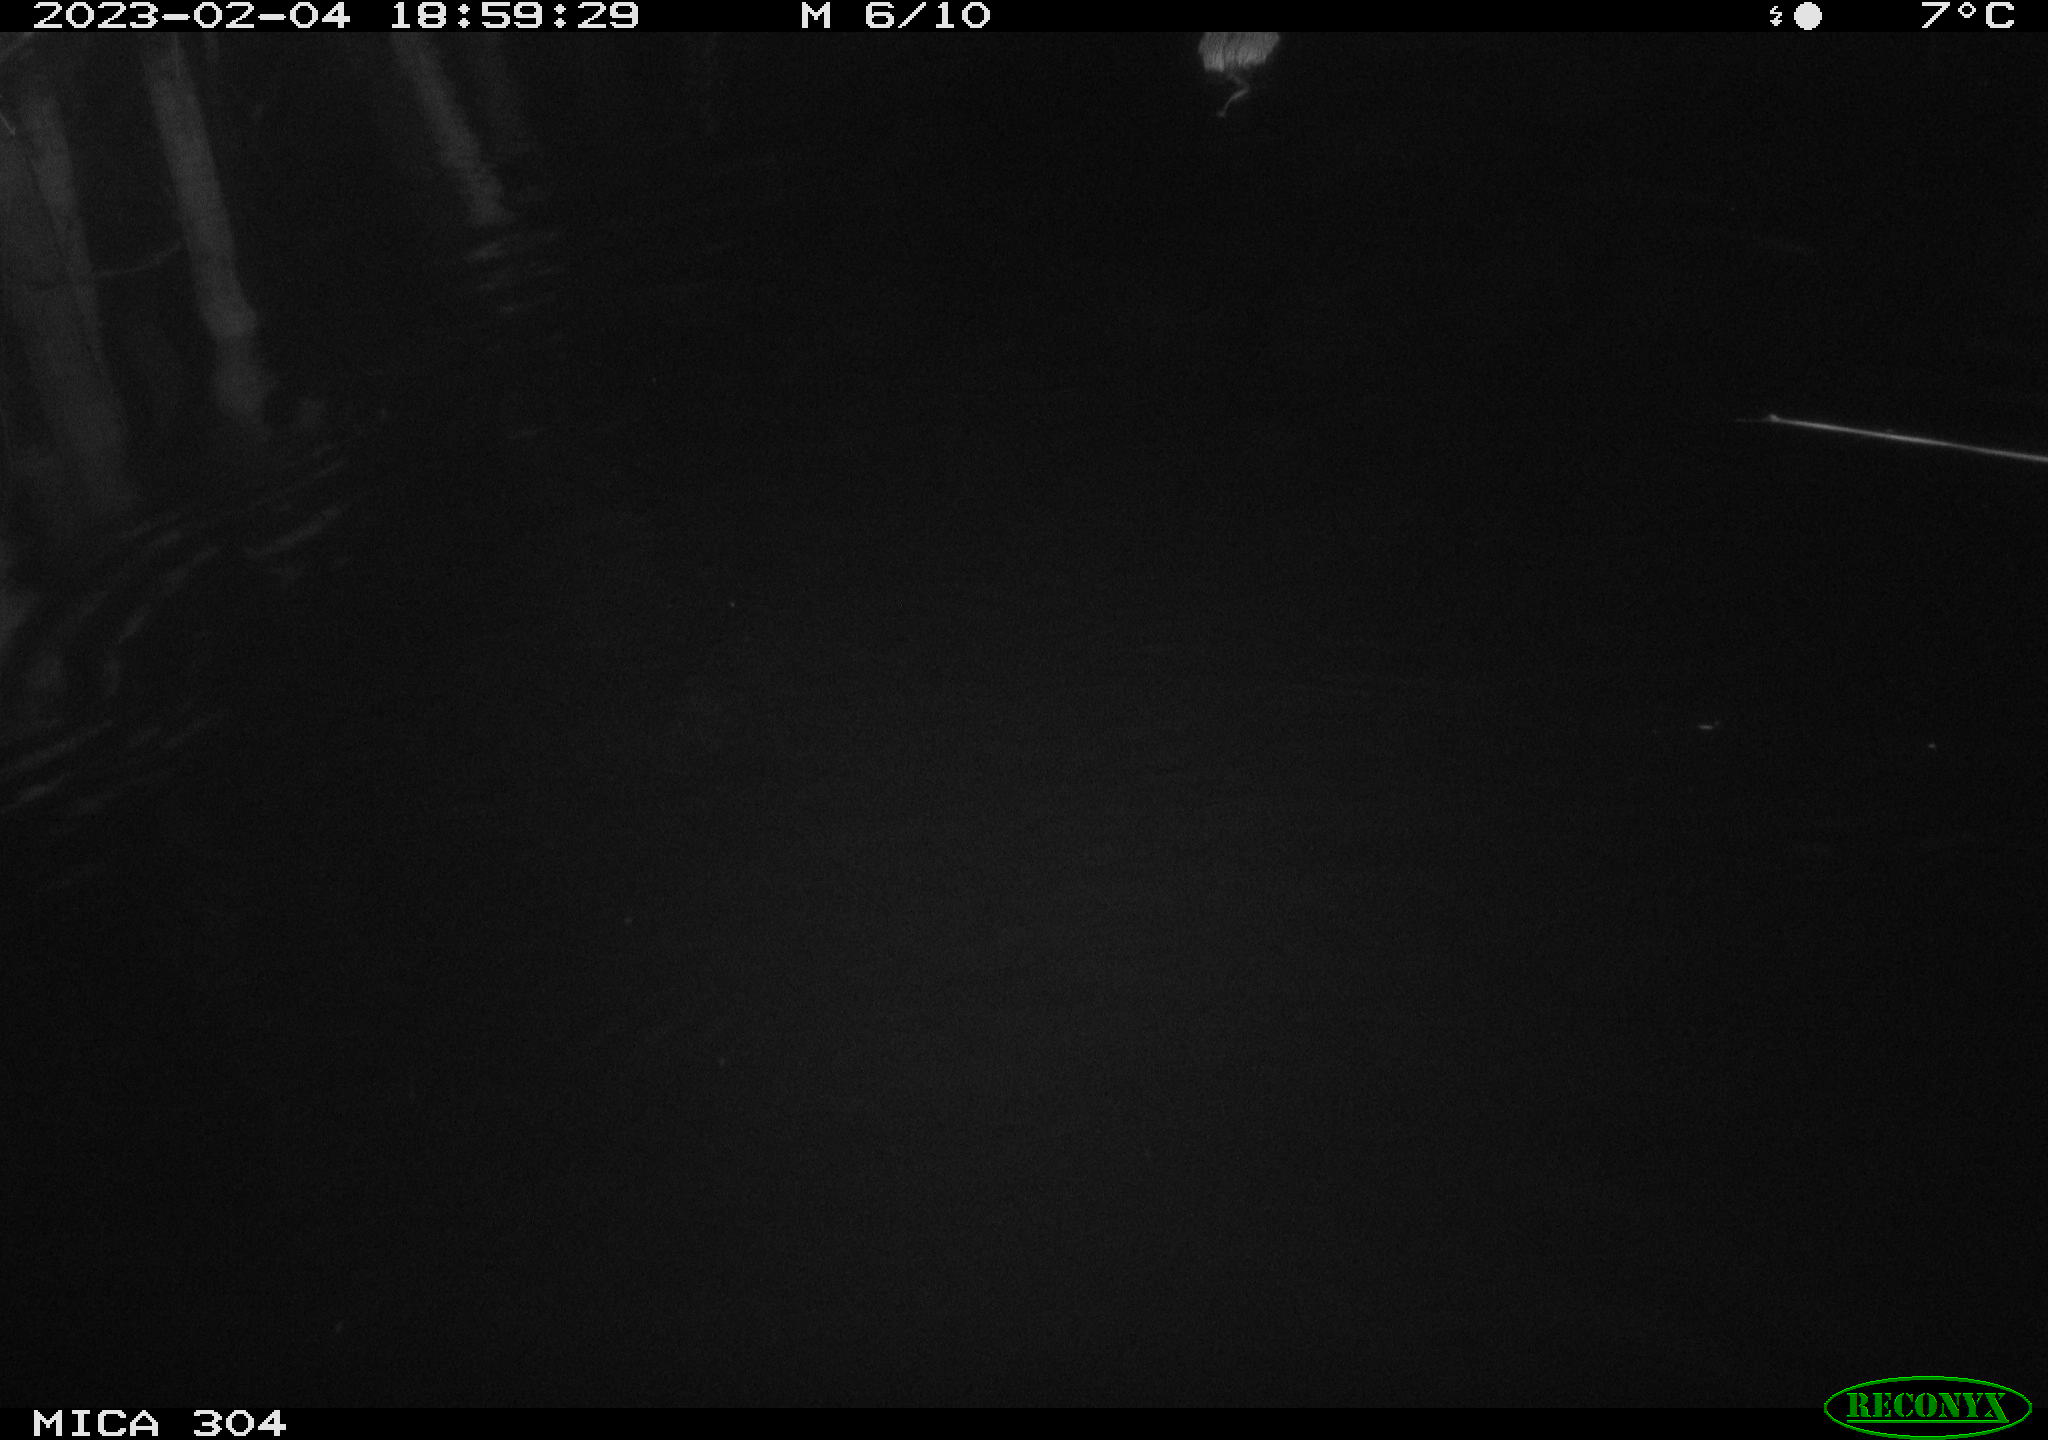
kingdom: Animalia
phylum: Chordata
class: Mammalia
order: Rodentia
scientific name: Rodentia
